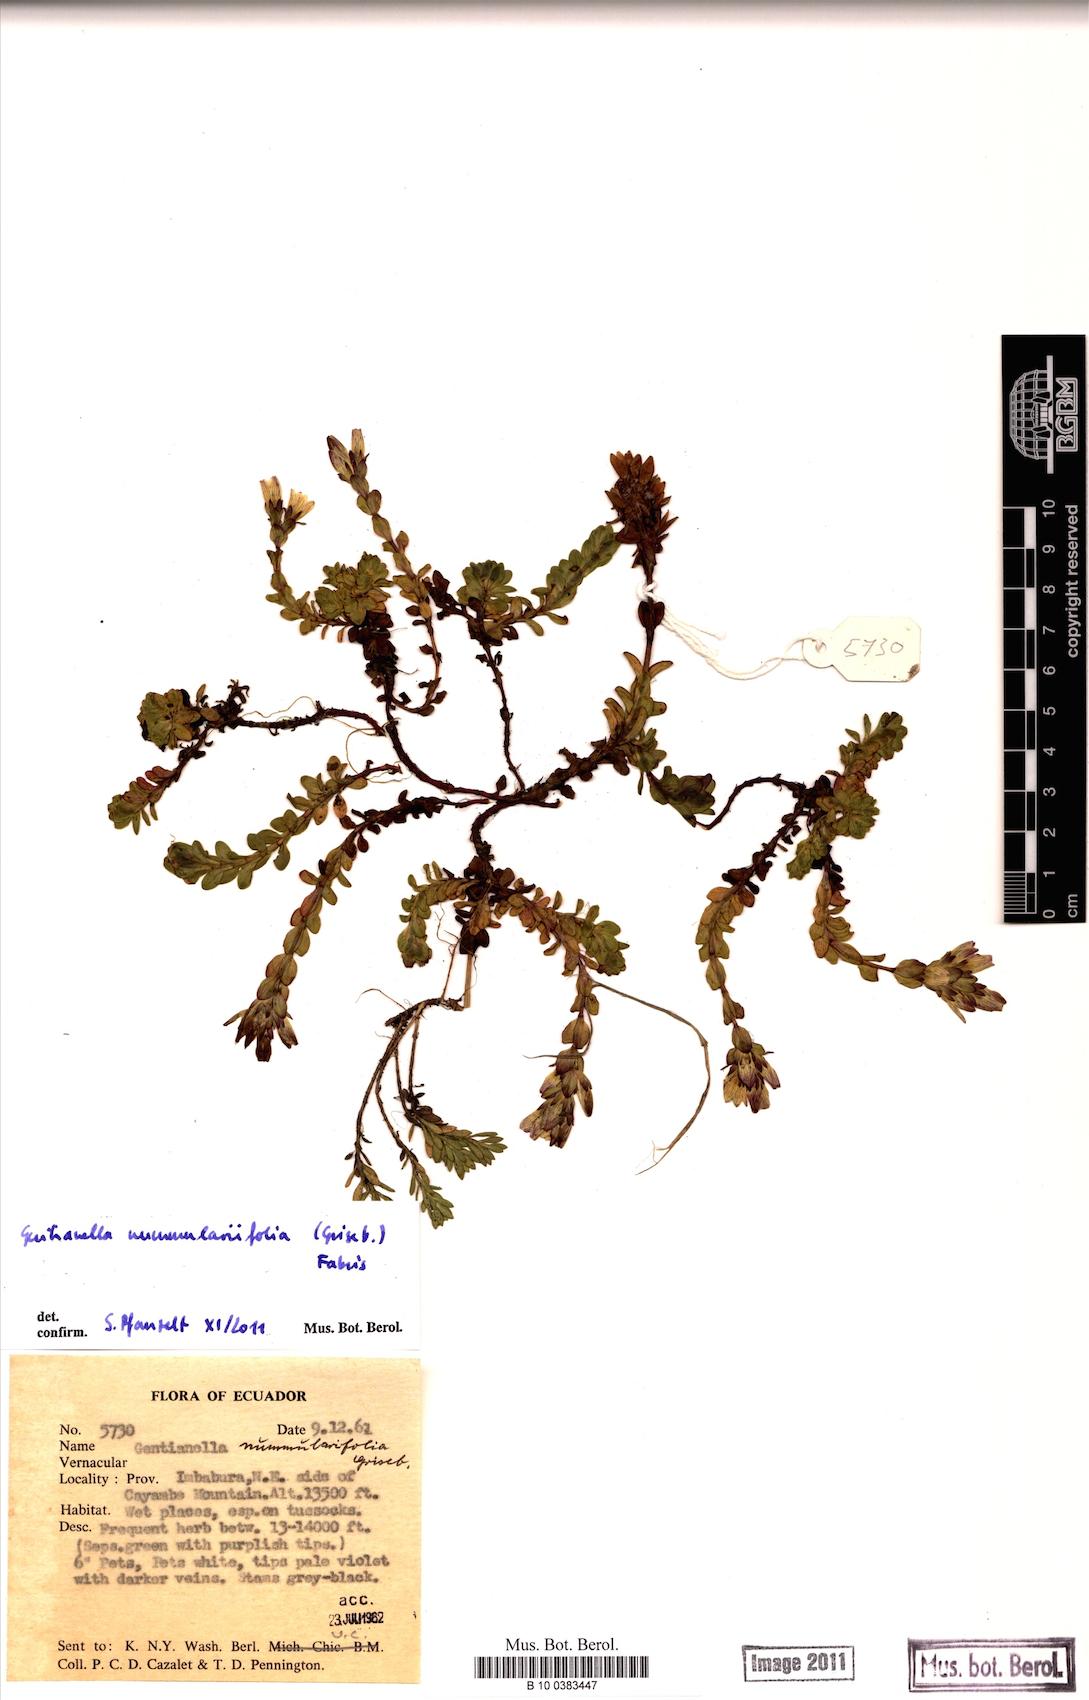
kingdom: Plantae
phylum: Tracheophyta
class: Magnoliopsida
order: Gentianales
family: Gentianaceae
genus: Gentianella
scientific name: Gentianella nummulariifolia
